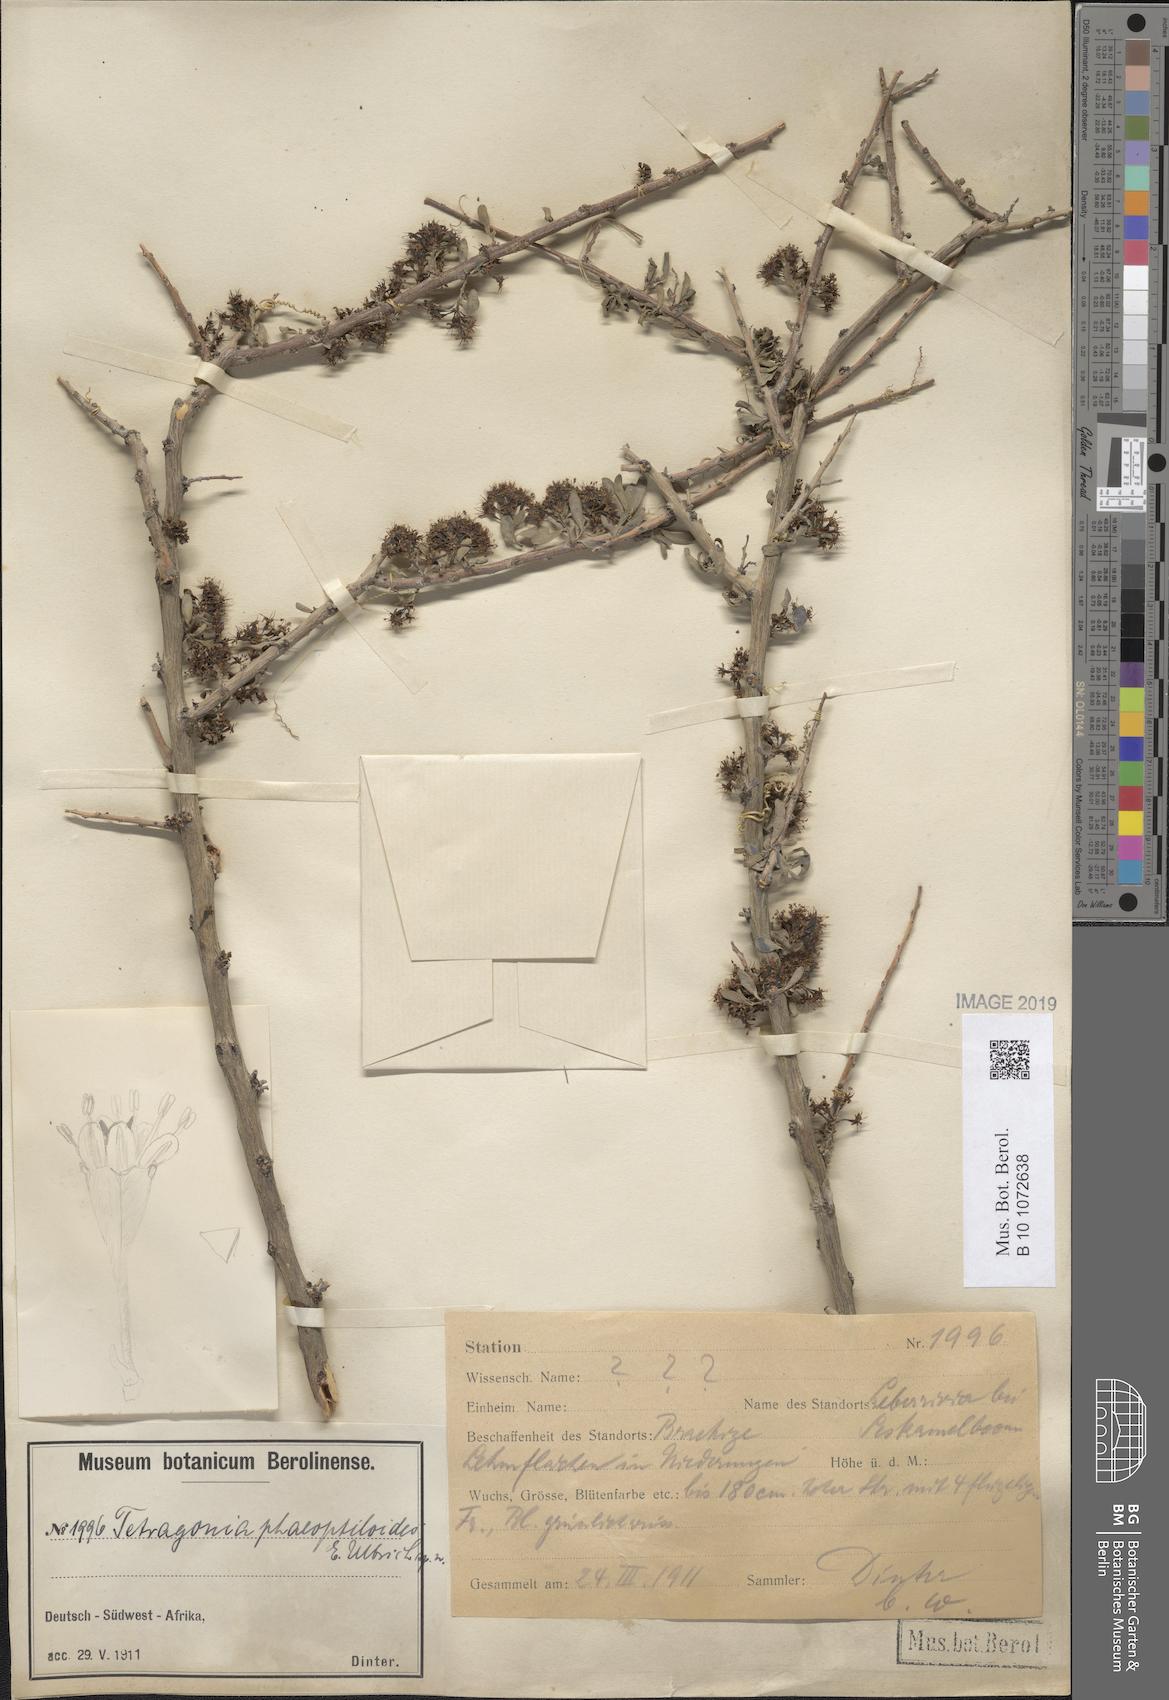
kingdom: Plantae
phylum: Tracheophyta
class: Magnoliopsida
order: Caryophyllales
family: Aizoaceae
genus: Tetragonia
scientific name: Tetragonia
